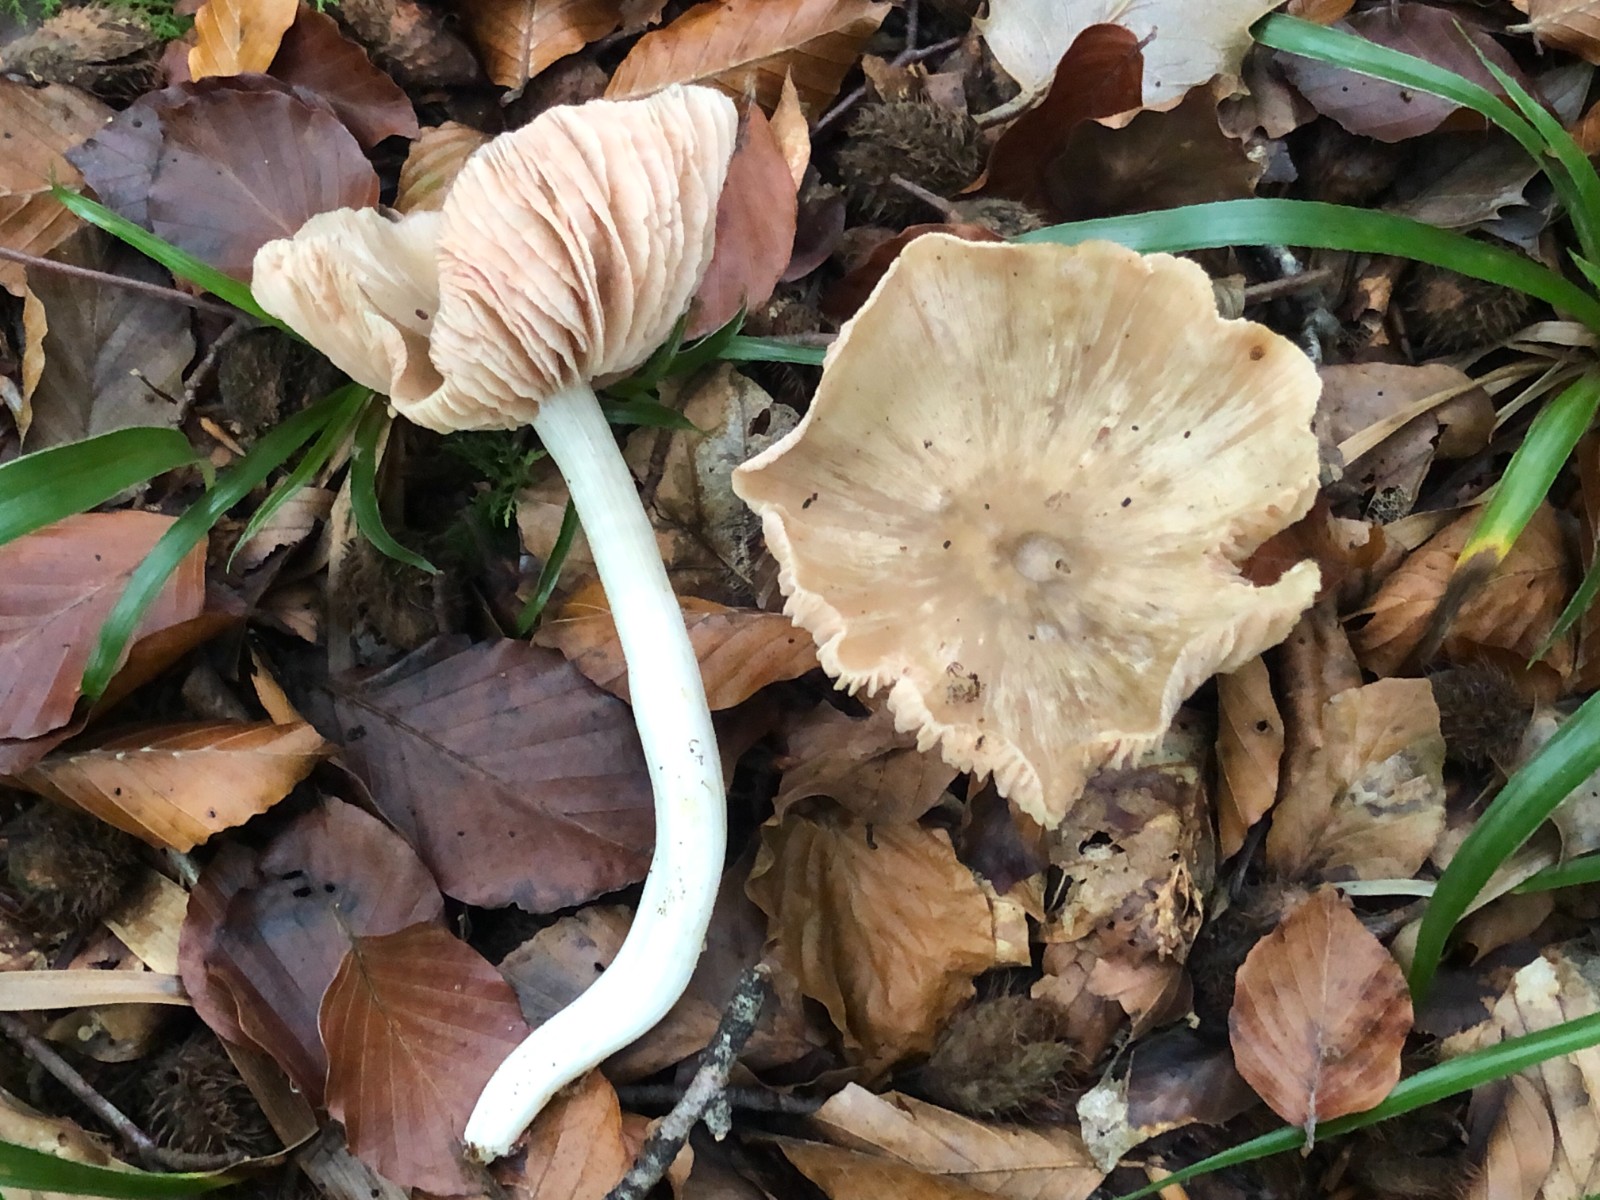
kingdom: Fungi
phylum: Basidiomycota
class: Agaricomycetes
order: Agaricales
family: Entolomataceae
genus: Entoloma
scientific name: Entoloma
